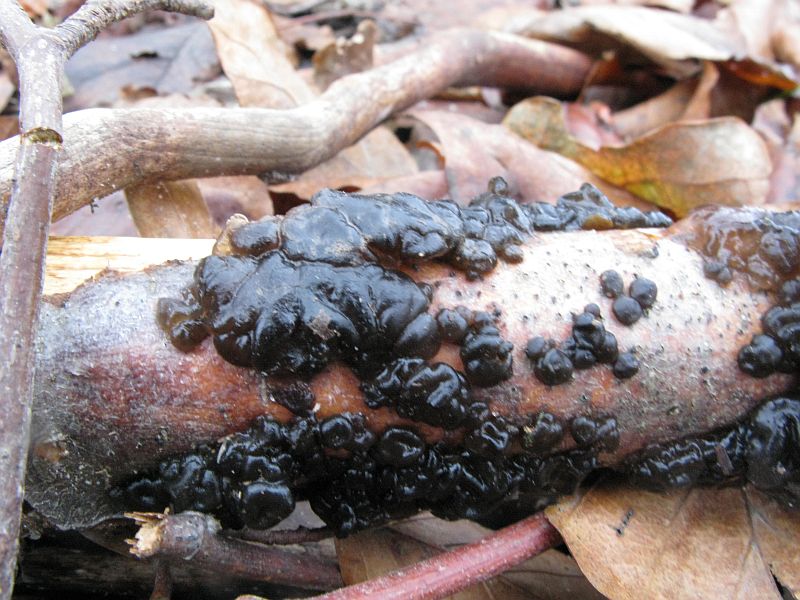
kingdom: Fungi
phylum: Basidiomycota
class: Agaricomycetes
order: Auriculariales
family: Auriculariaceae
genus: Exidia
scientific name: Exidia nigricans
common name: almindelig bævretop
